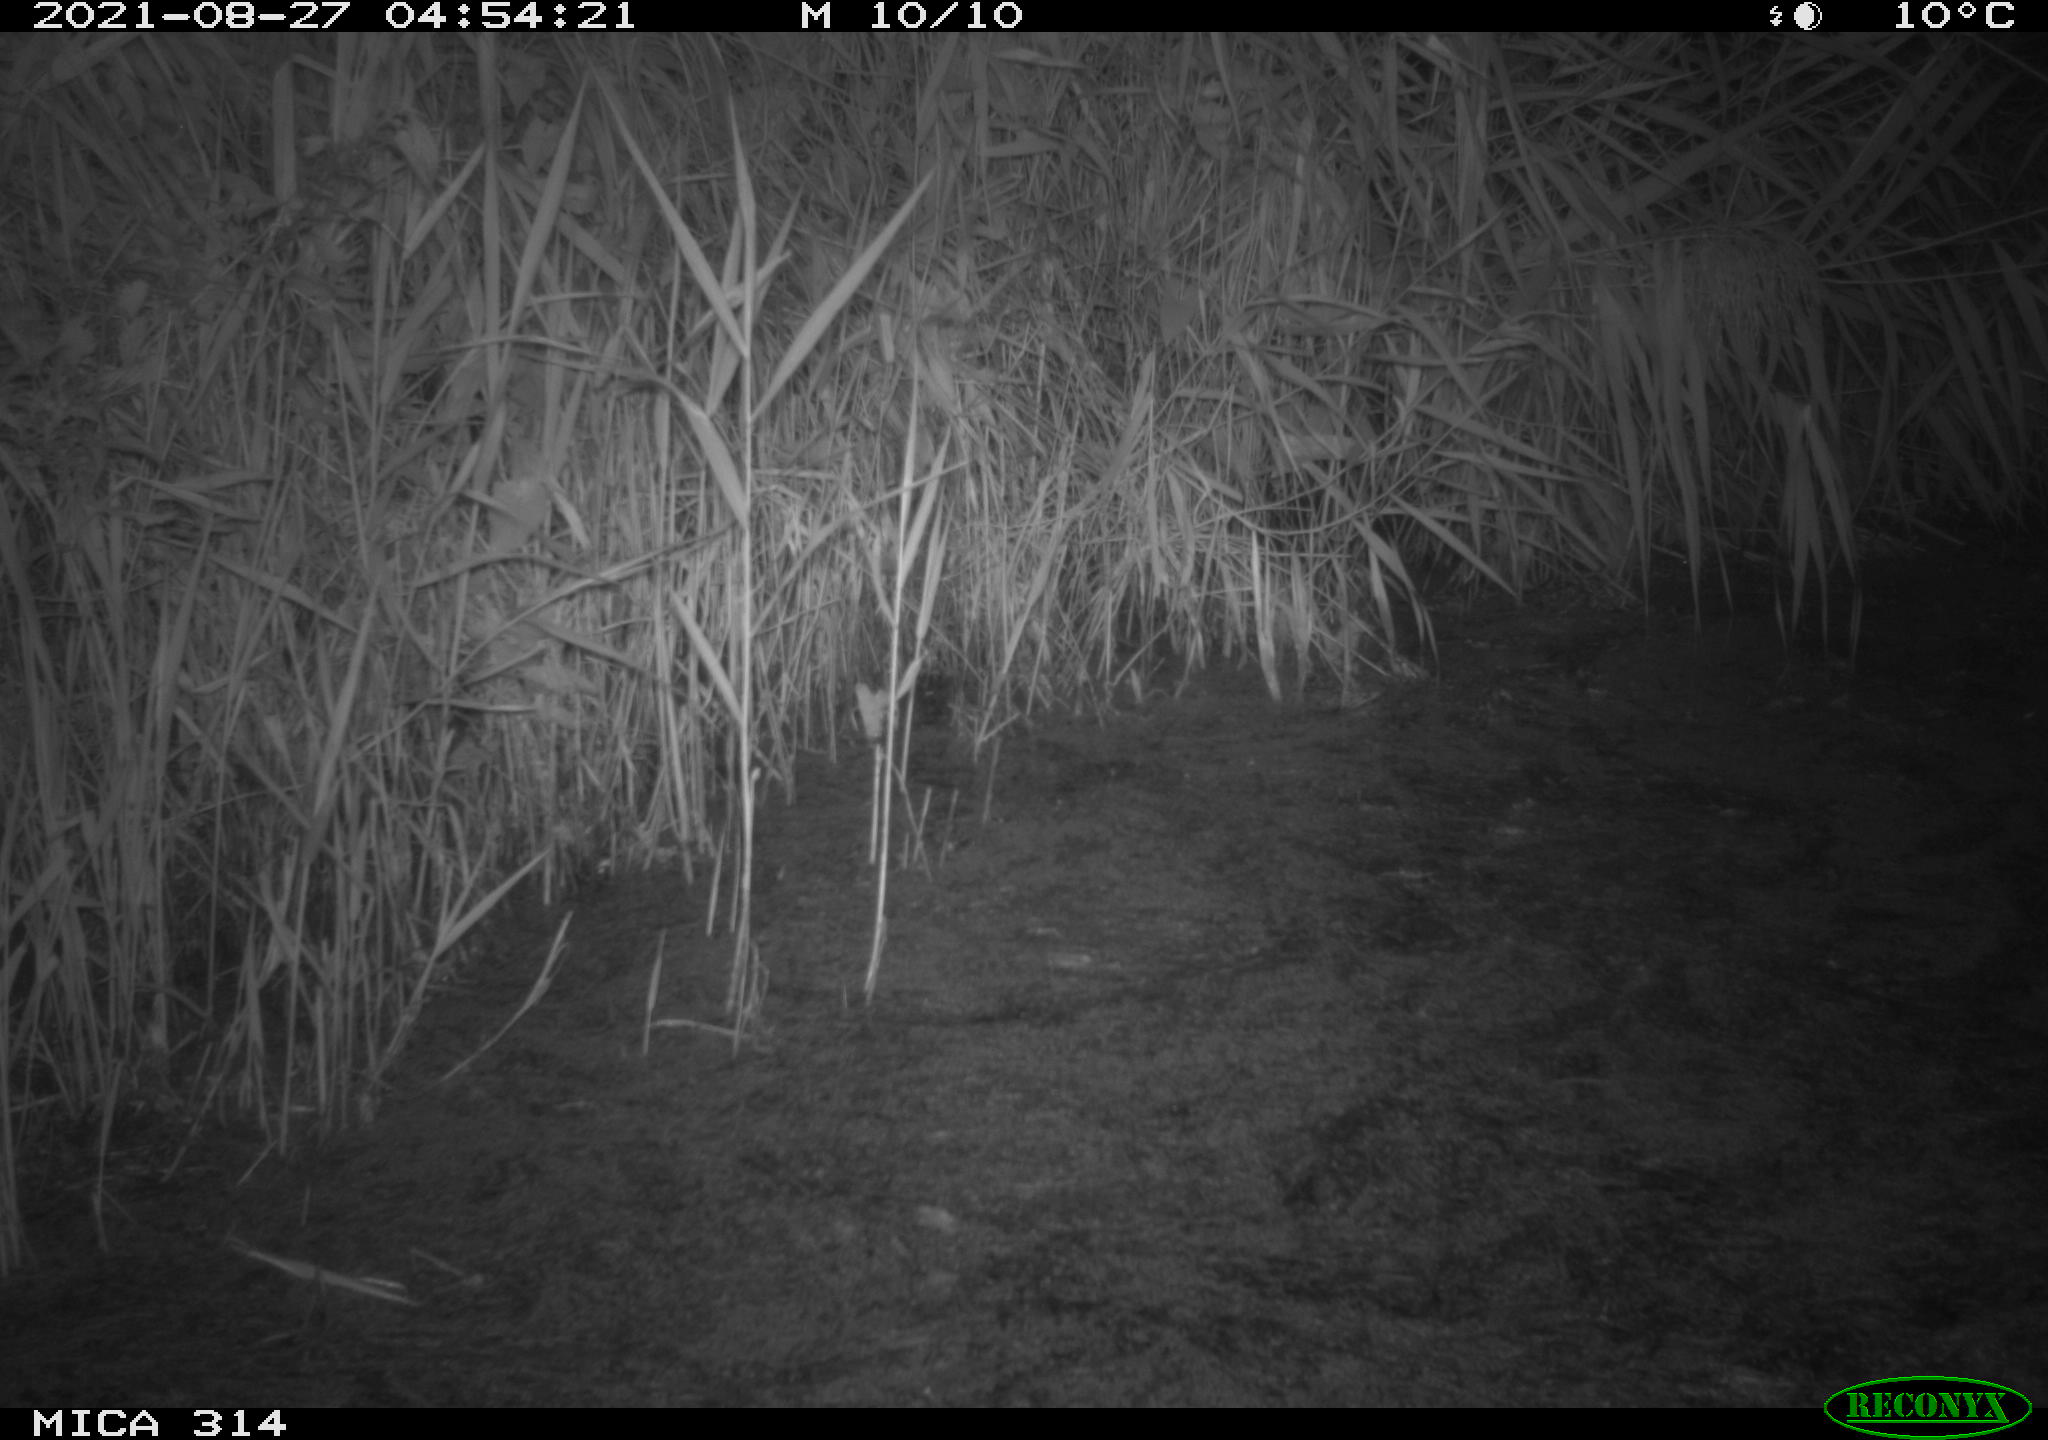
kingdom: Animalia
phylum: Chordata
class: Mammalia
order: Rodentia
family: Muridae
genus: Rattus
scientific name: Rattus norvegicus
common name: Brown rat
